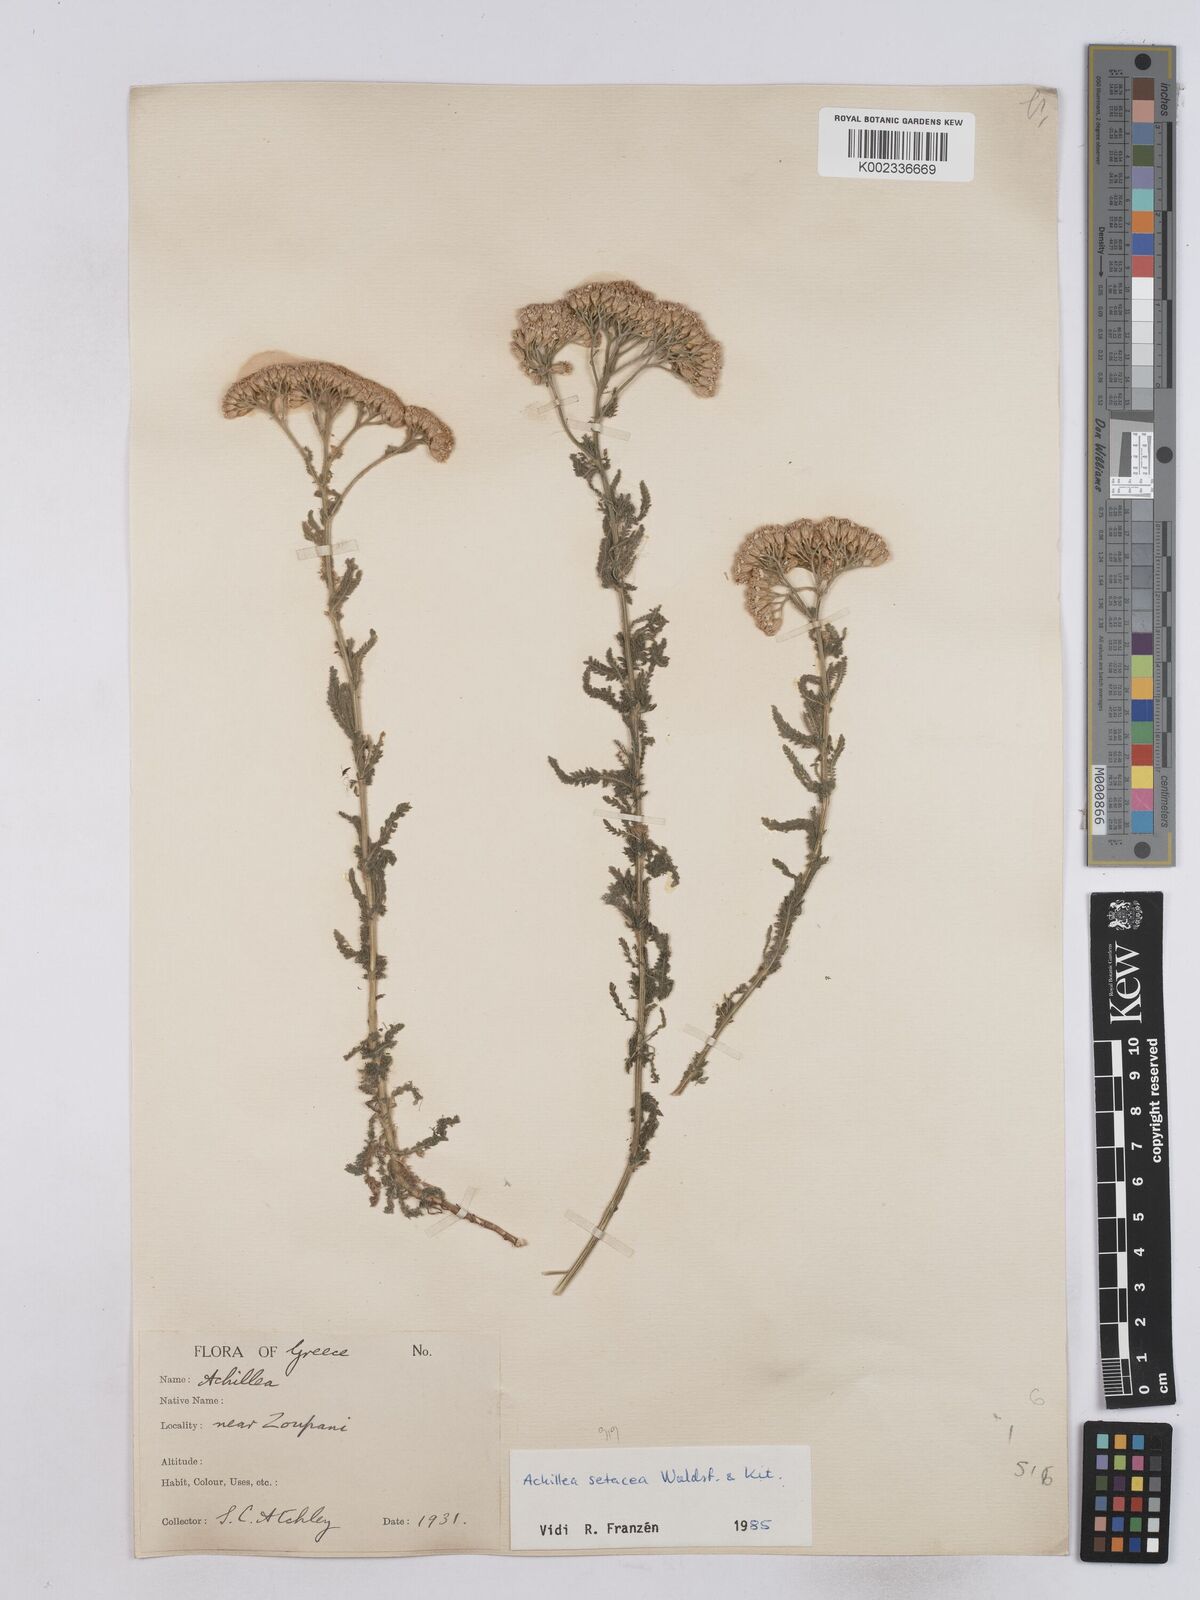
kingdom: Plantae
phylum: Tracheophyta
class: Magnoliopsida
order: Asterales
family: Asteraceae
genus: Achillea
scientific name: Achillea setacea
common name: Bristly yarrow
